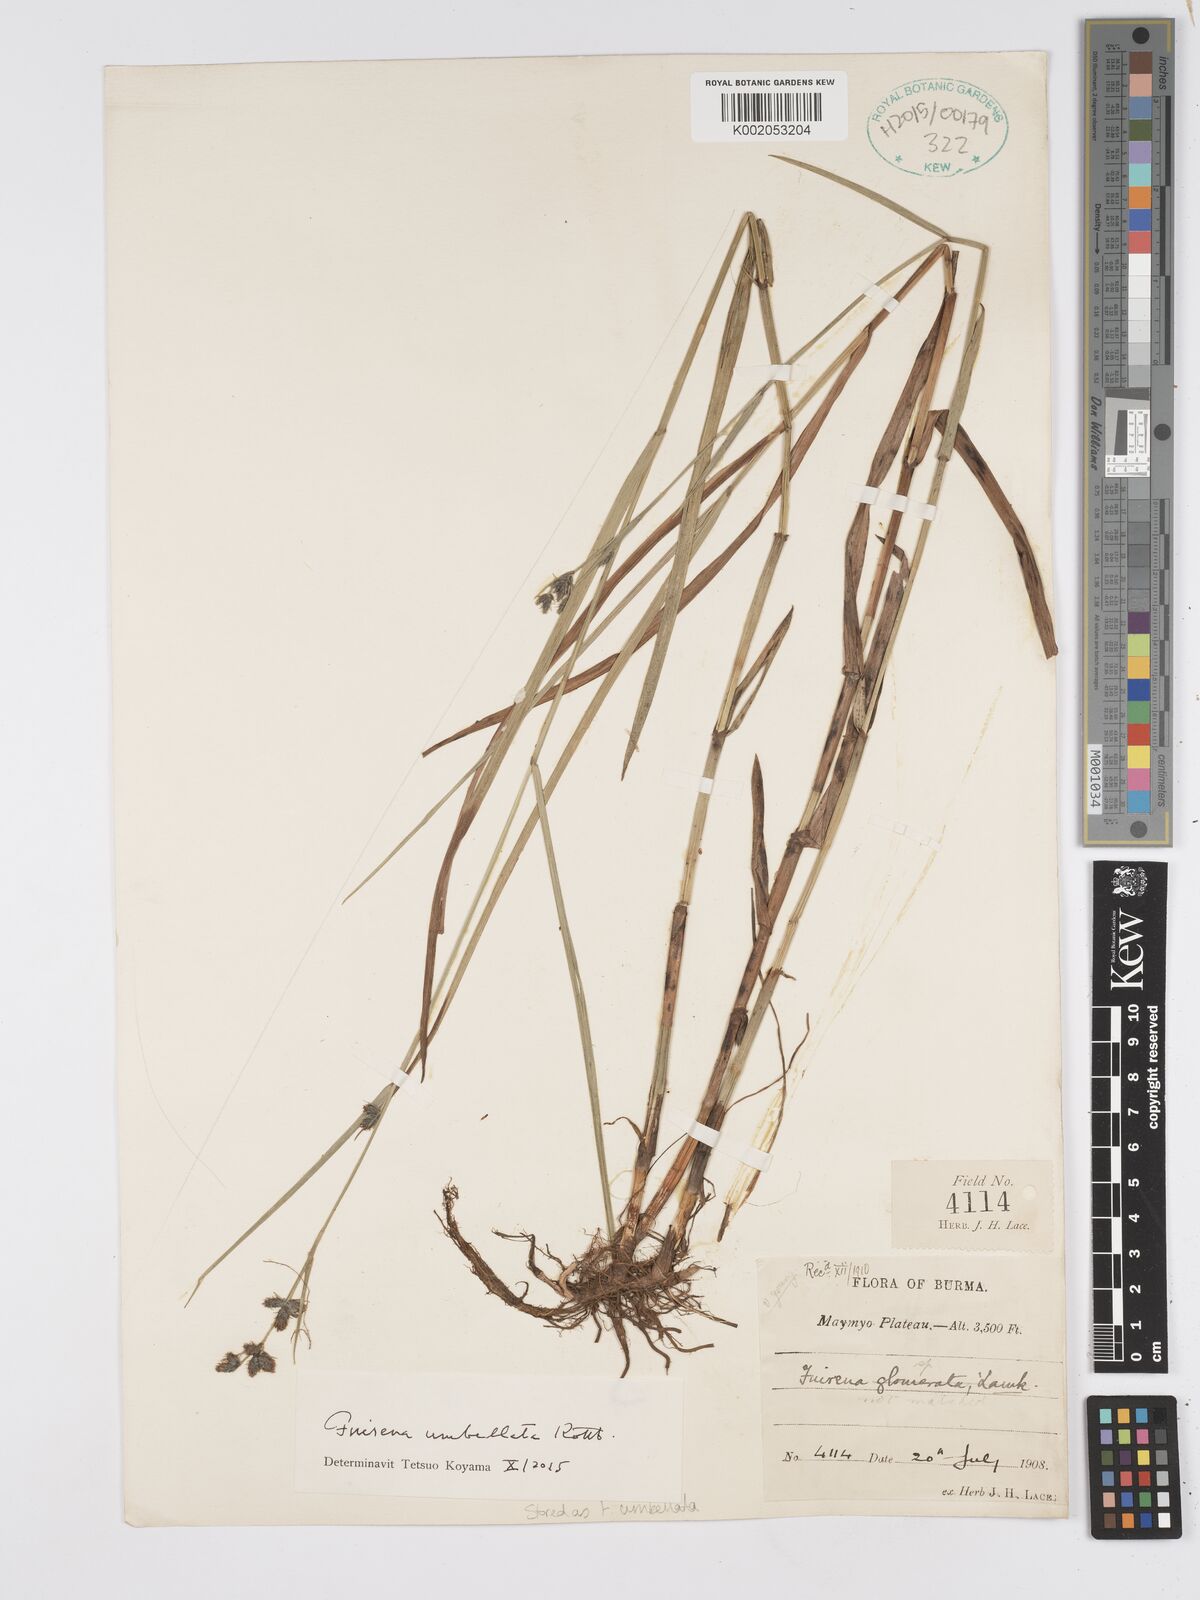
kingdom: Plantae
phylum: Tracheophyta
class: Liliopsida
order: Poales
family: Cyperaceae
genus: Fuirena
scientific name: Fuirena umbellata
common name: Yefen
